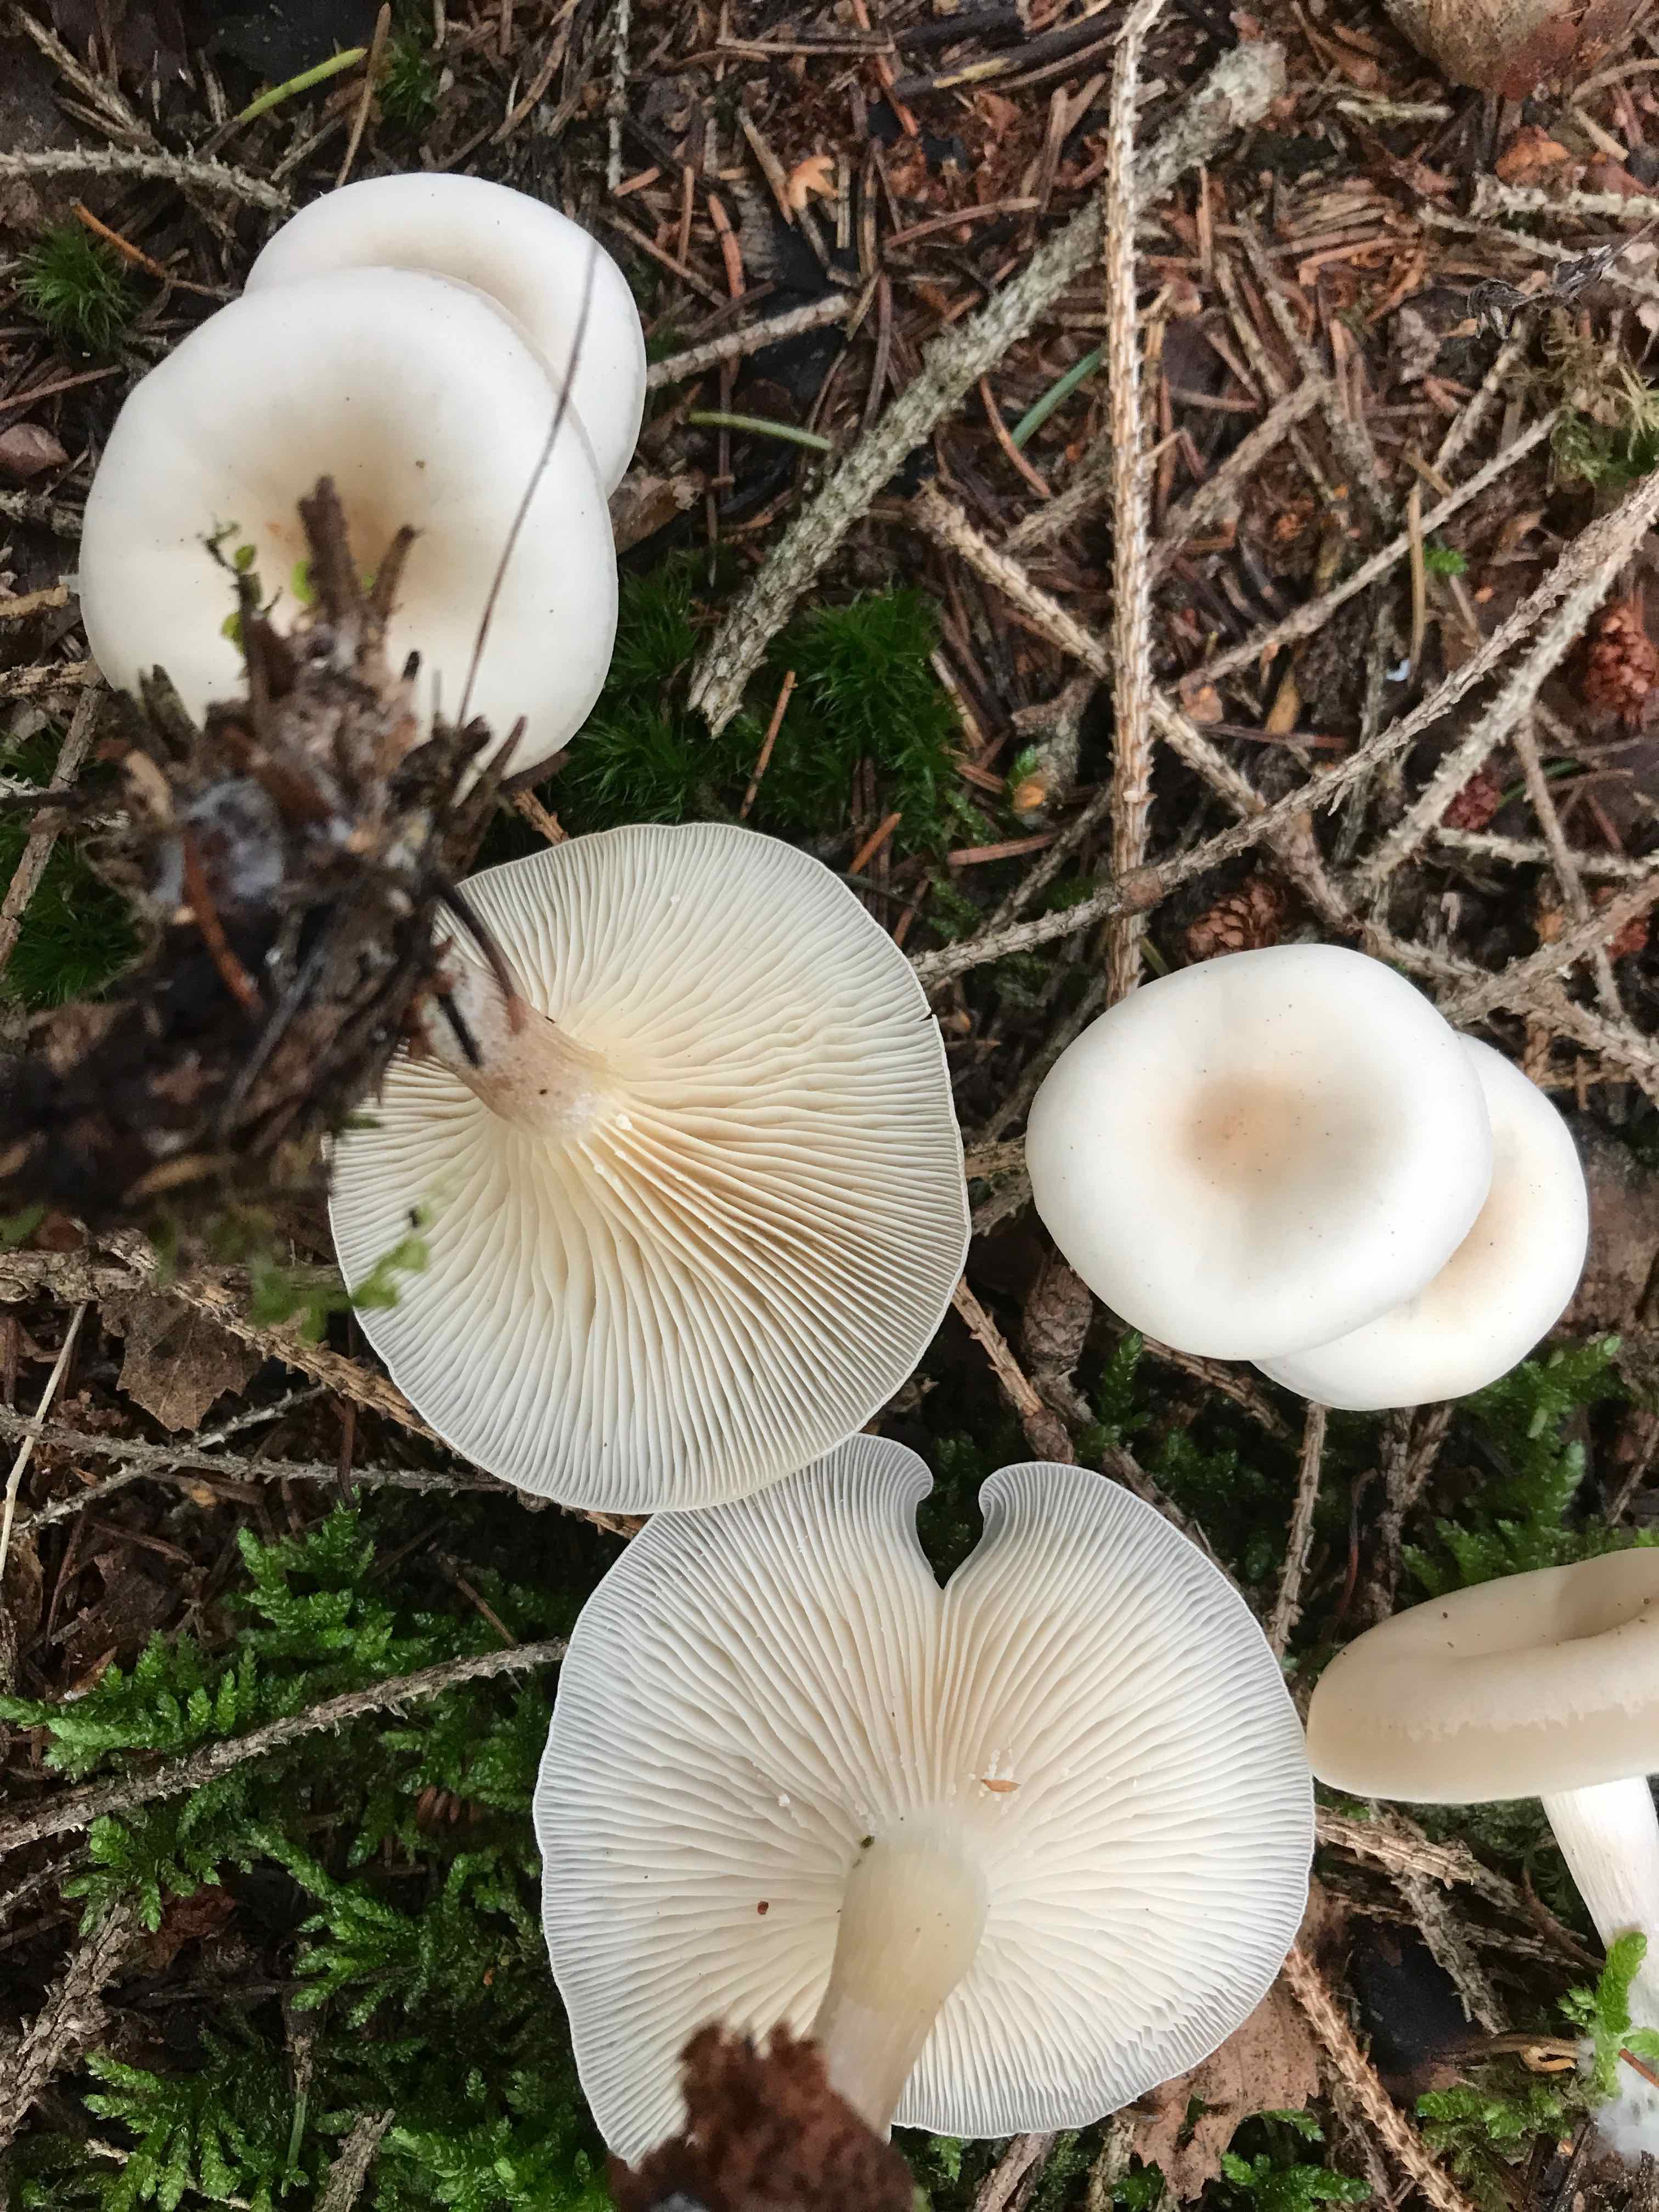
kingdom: Fungi
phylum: Basidiomycota
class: Agaricomycetes
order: Agaricales
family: Tricholomataceae
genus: Clitocybe
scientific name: Clitocybe metachroa
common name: grå tragthat
